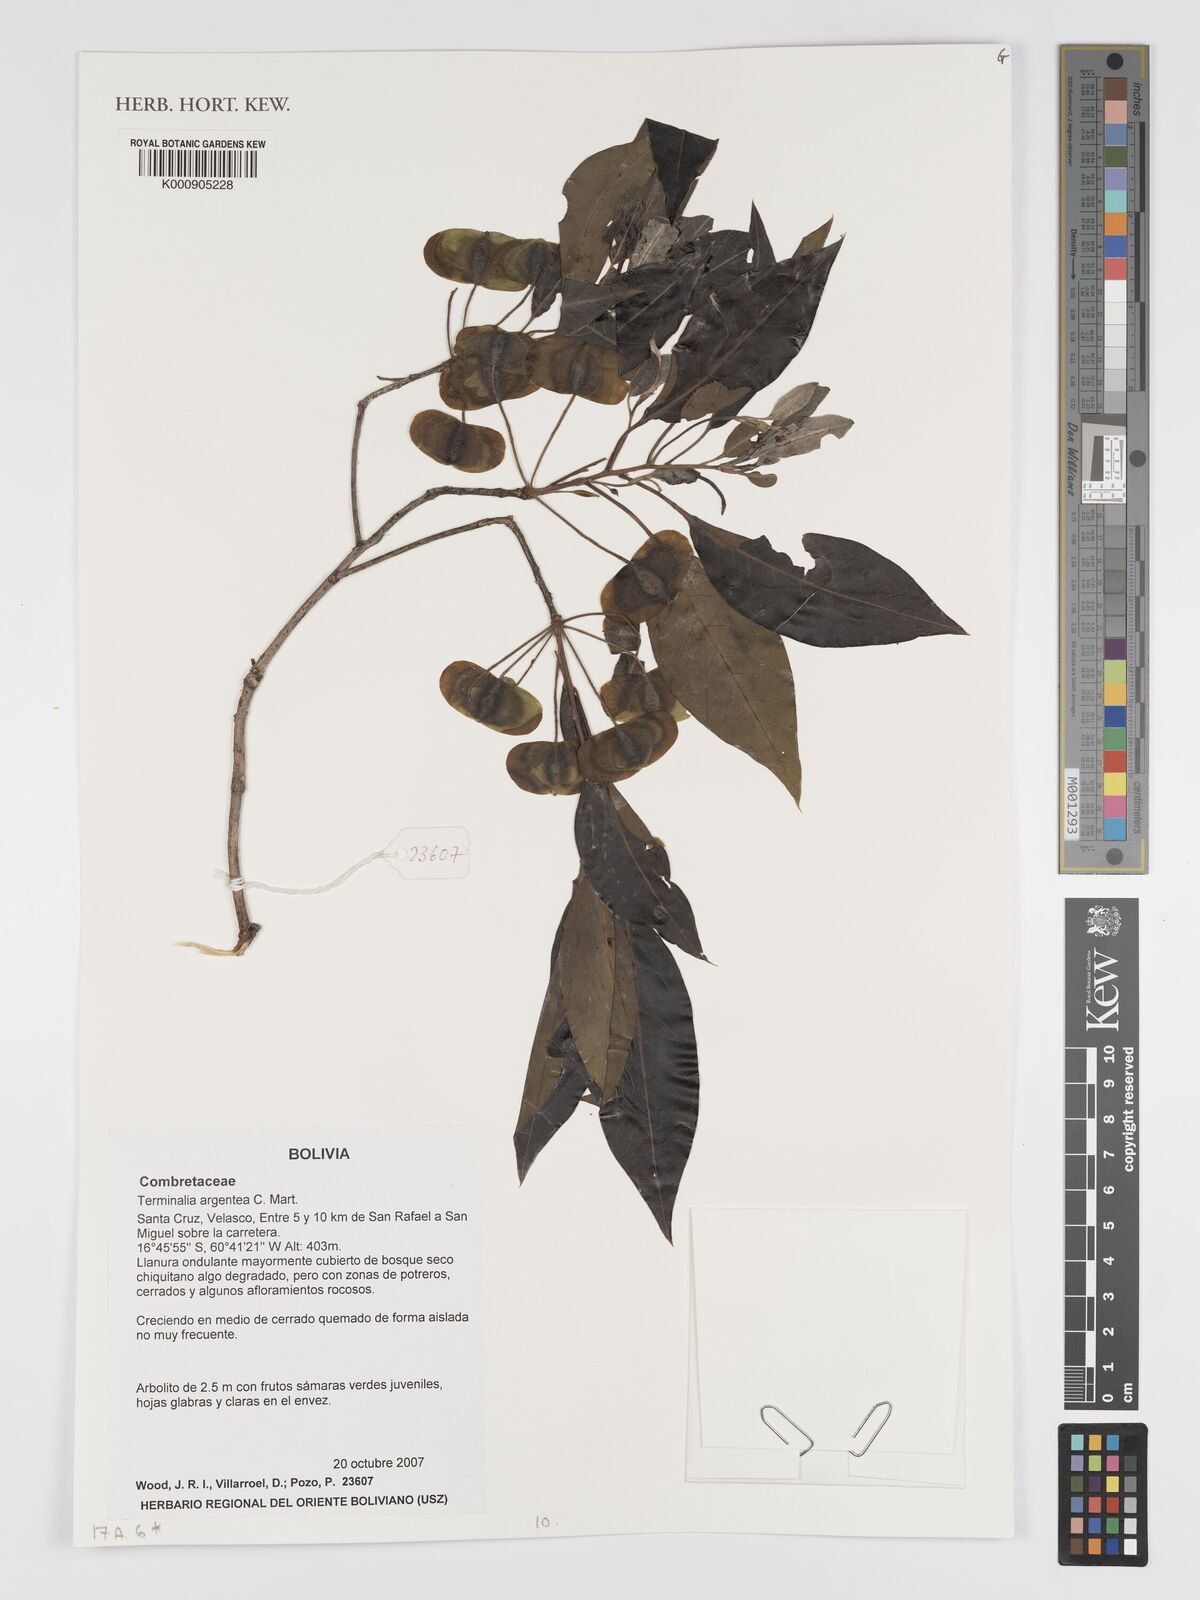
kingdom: Plantae
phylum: Tracheophyta
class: Magnoliopsida
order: Myrtales
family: Combretaceae
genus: Terminalia
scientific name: Terminalia argentea
